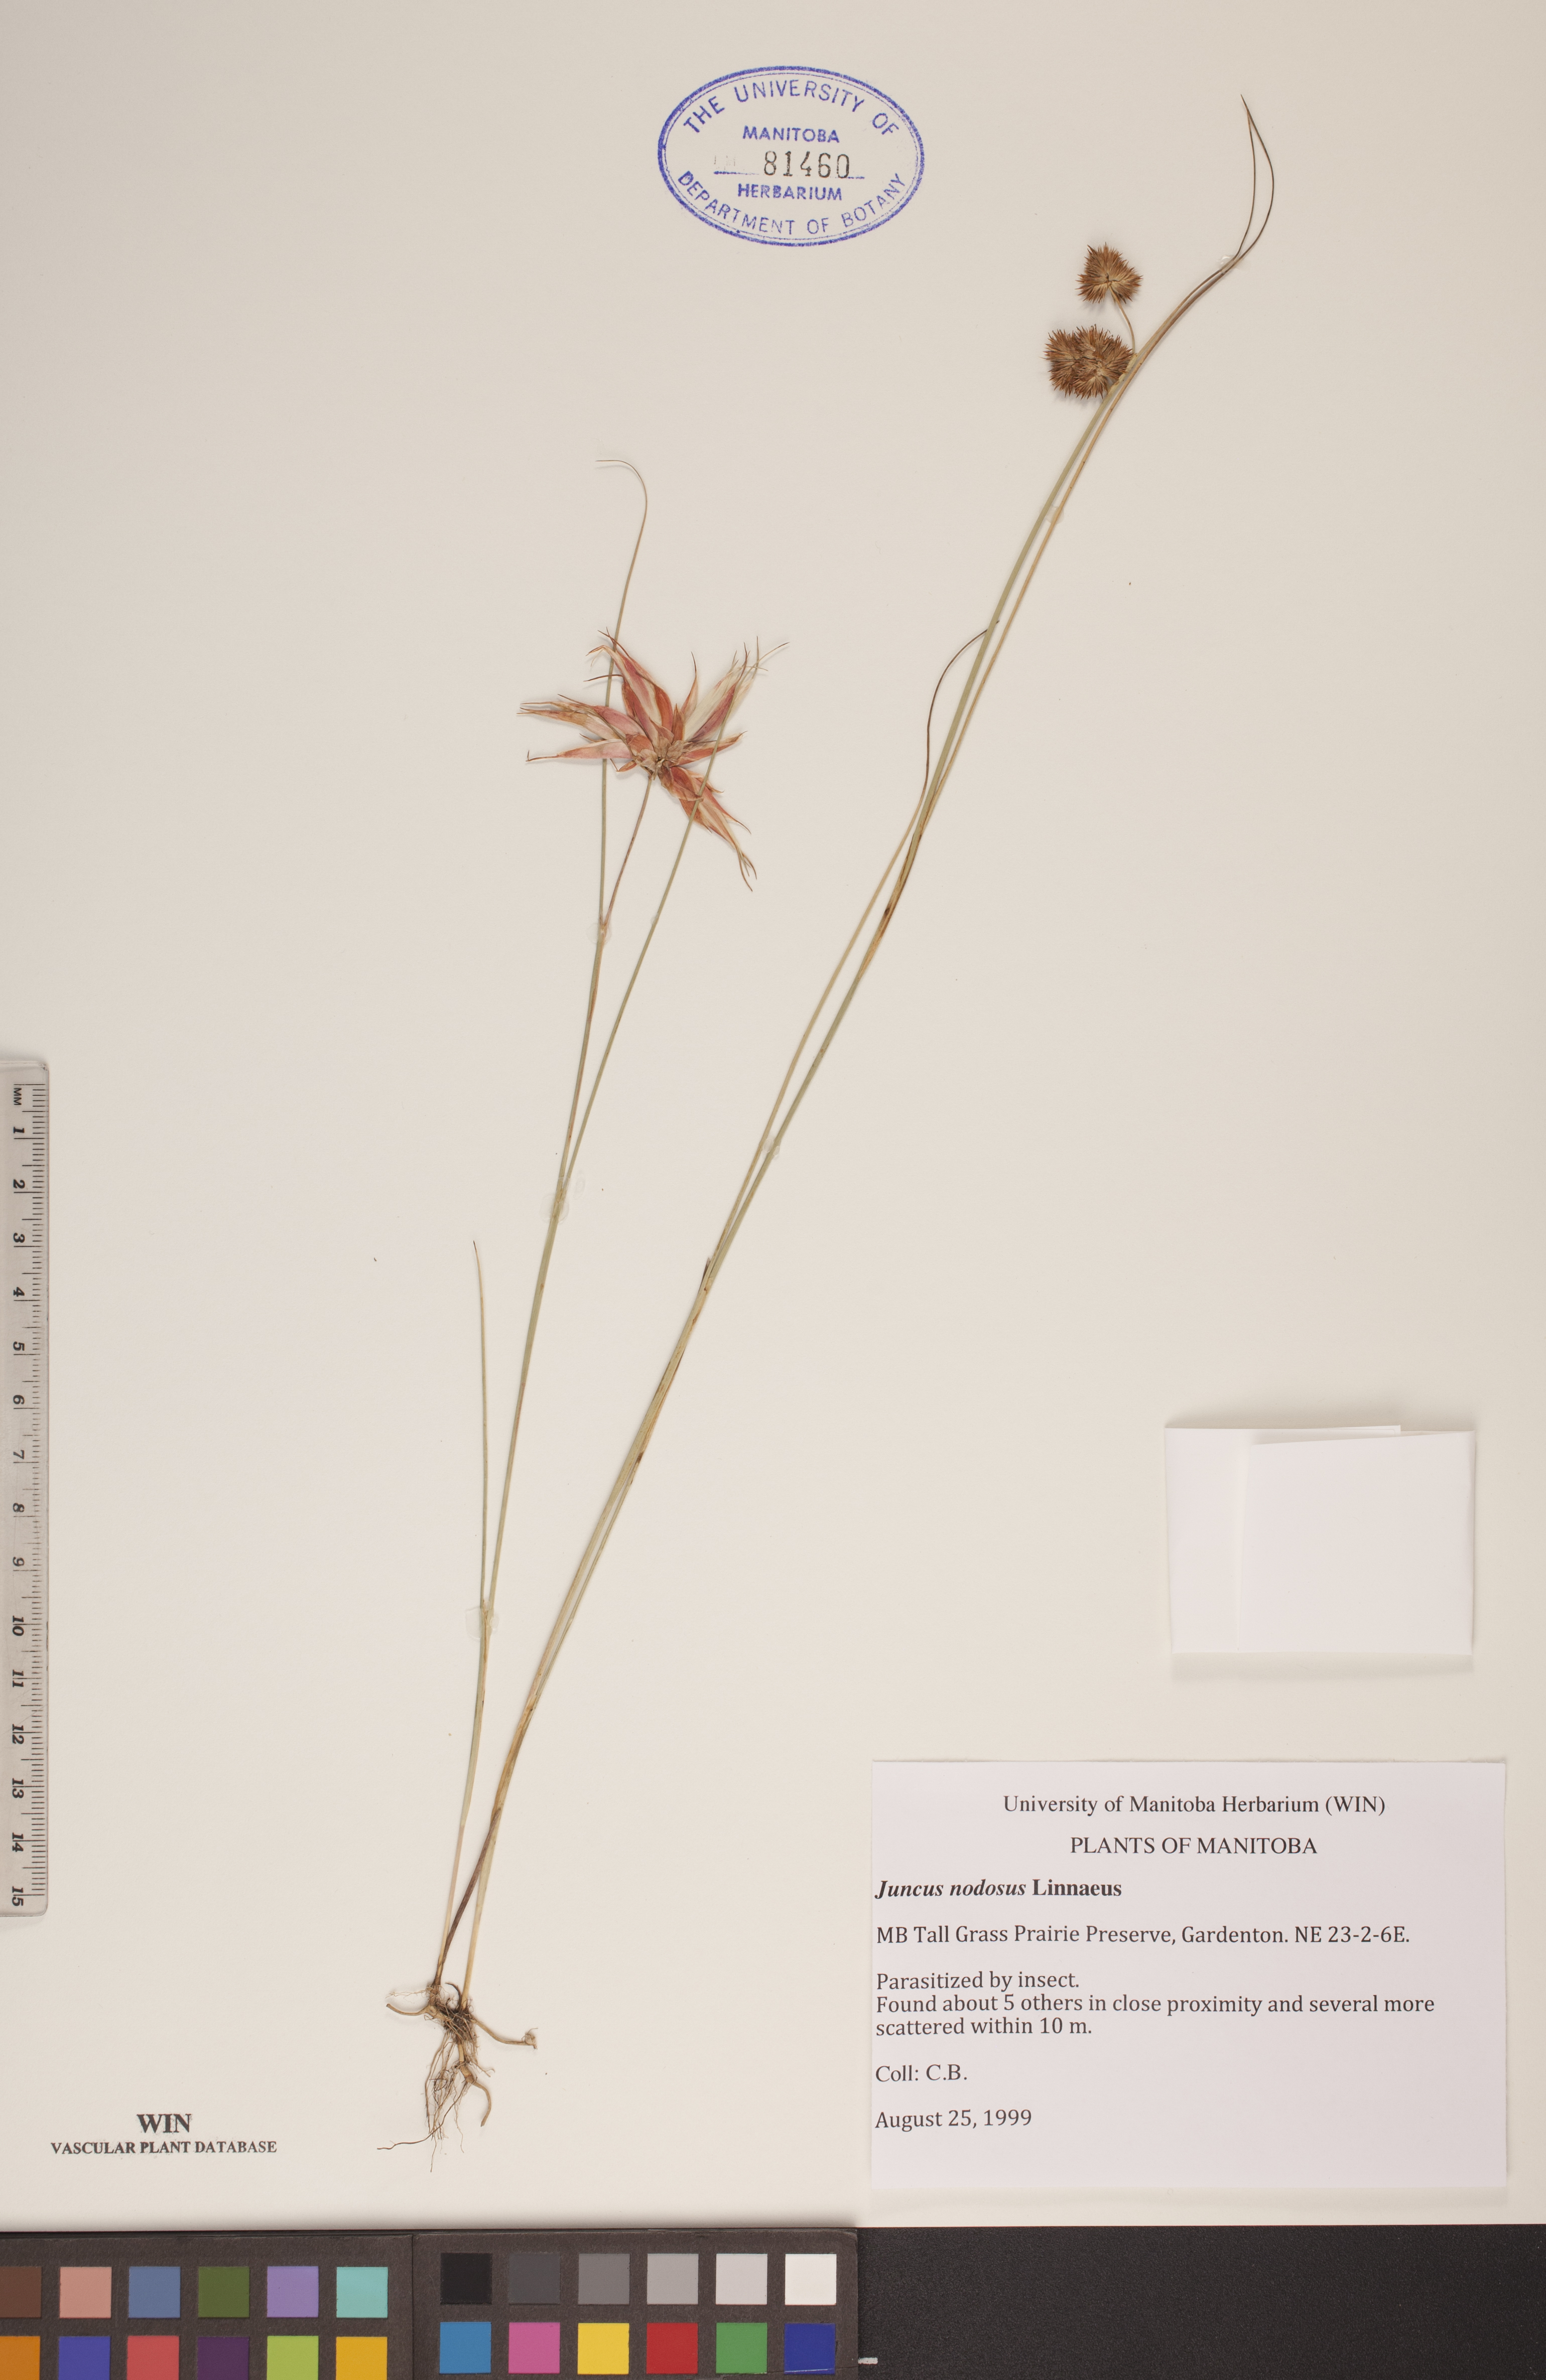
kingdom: Plantae
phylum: Tracheophyta
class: Liliopsida
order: Poales
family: Juncaceae
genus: Juncus
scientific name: Juncus nodosus
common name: Knotted rush
